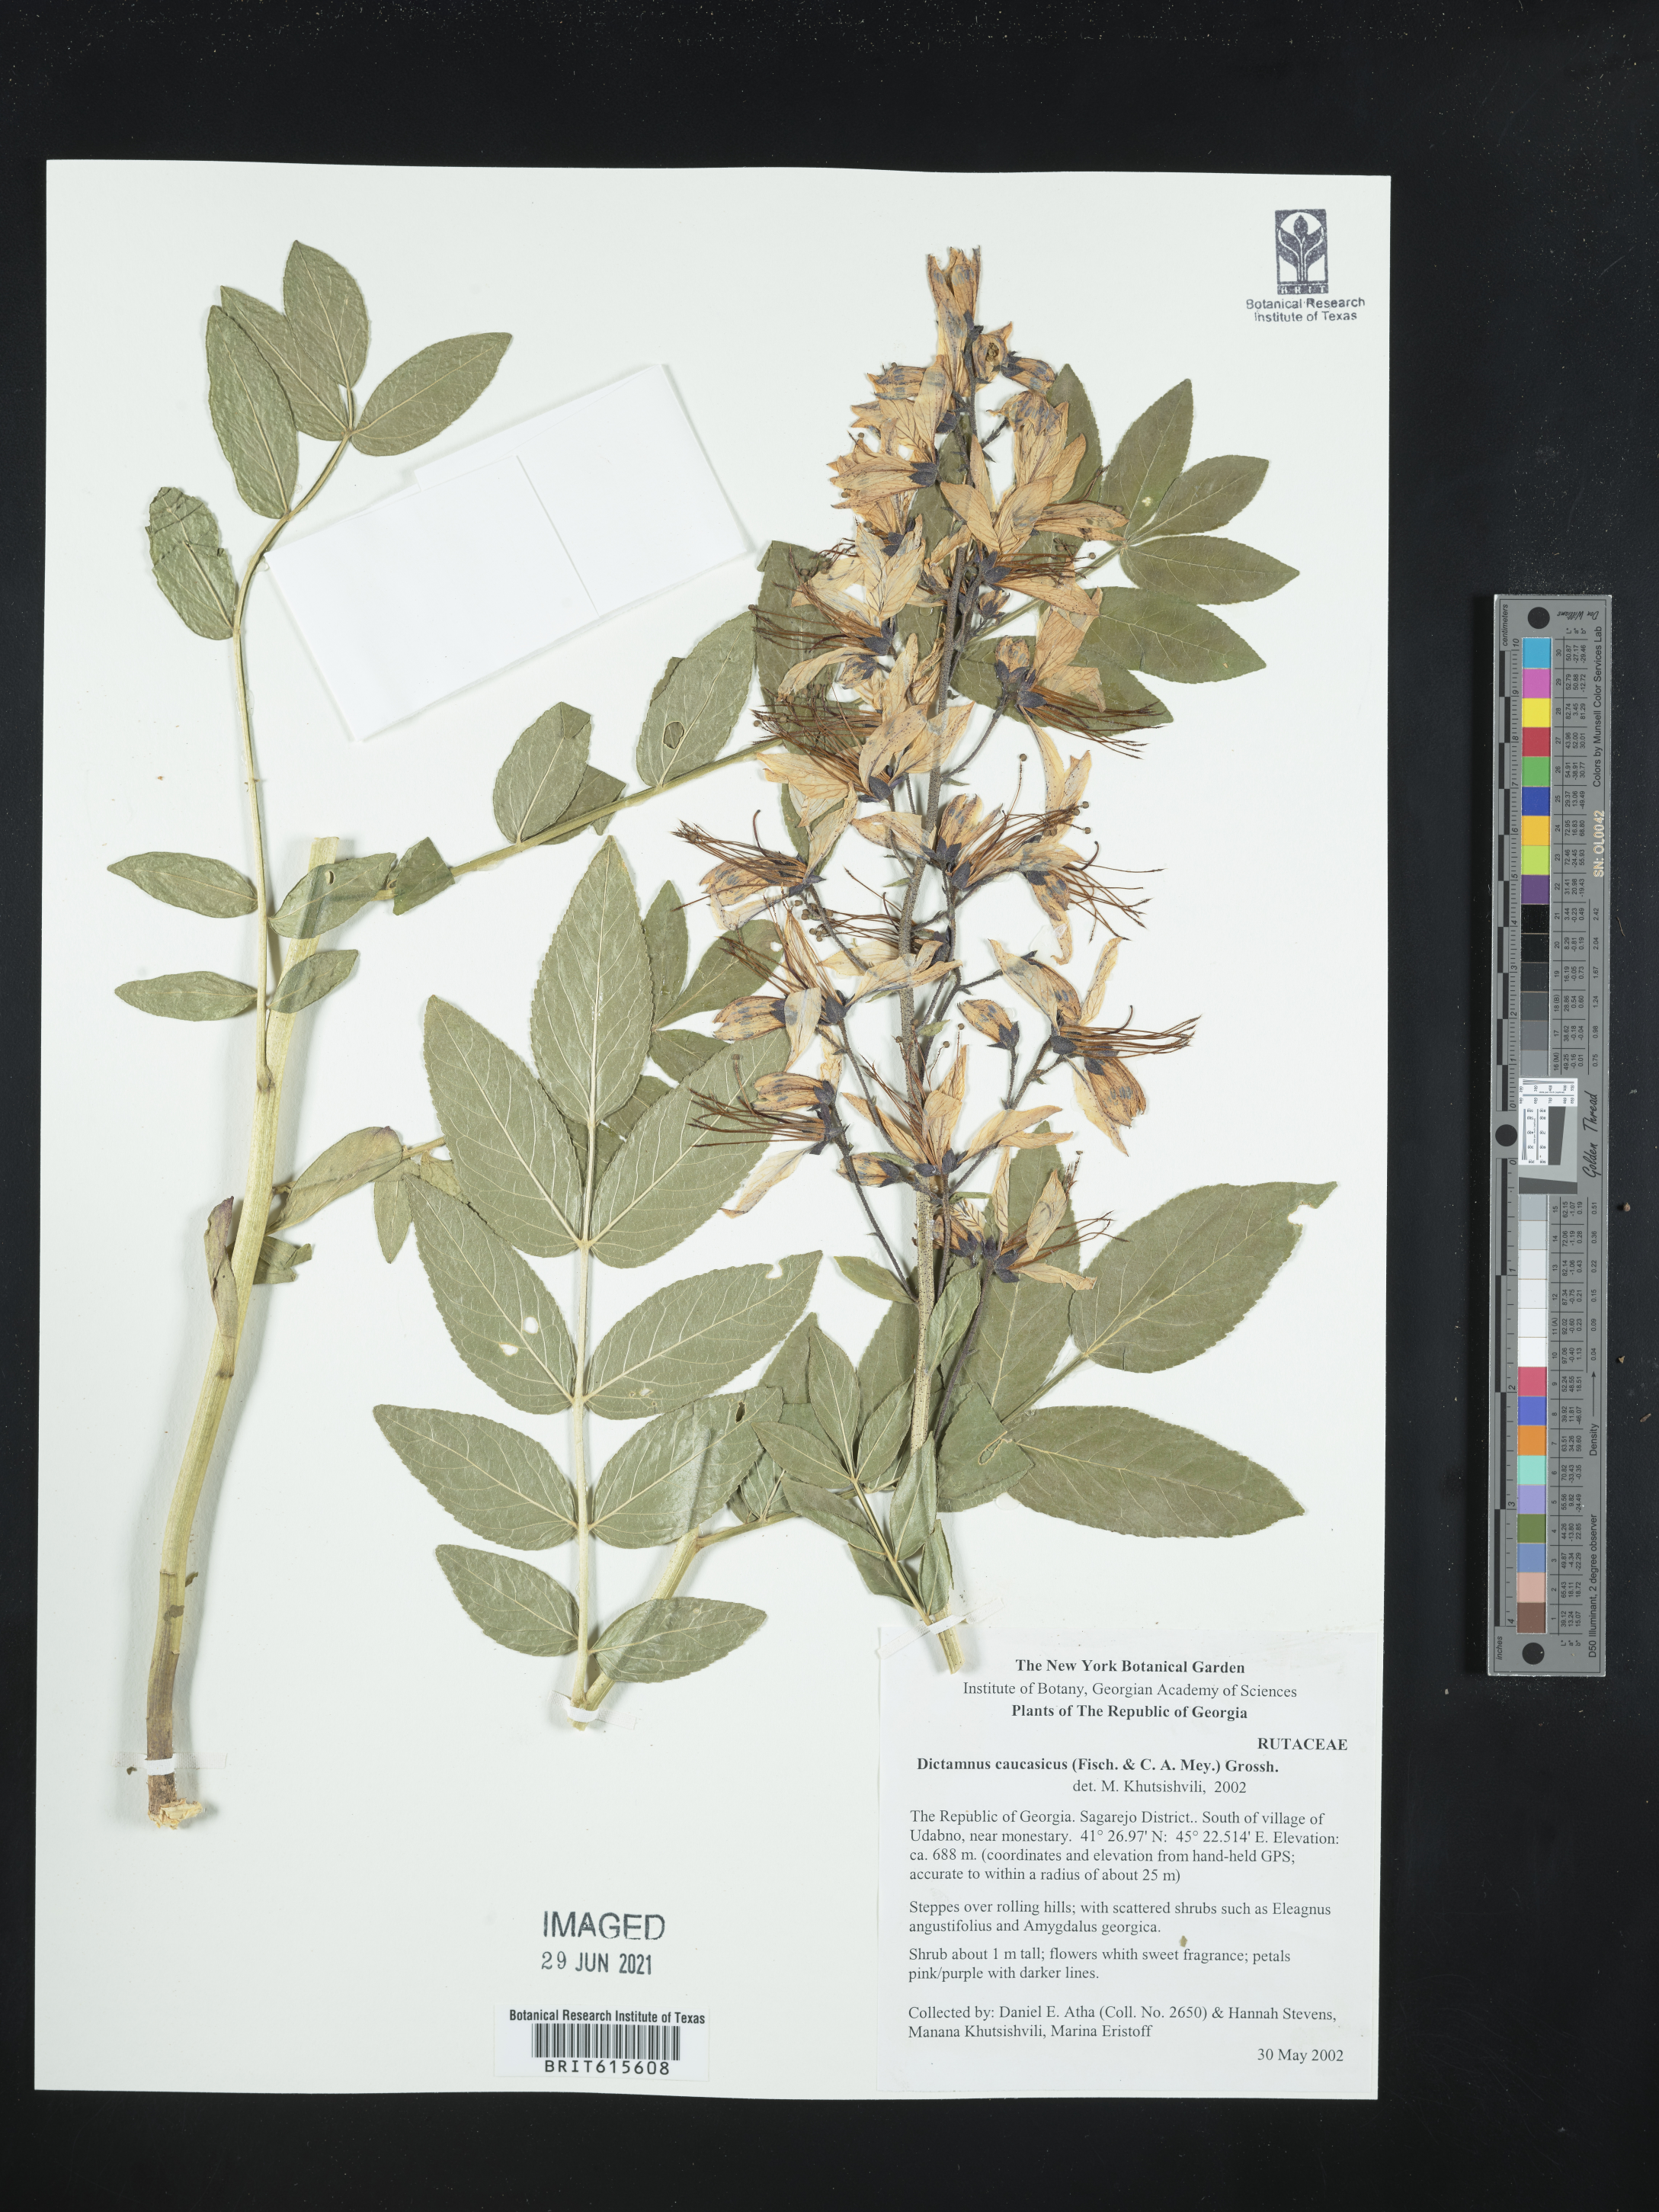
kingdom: Plantae
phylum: Tracheophyta
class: Magnoliopsida
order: Sapindales
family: Rutaceae
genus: Dictamnus
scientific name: Dictamnus albus
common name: Gasplant
